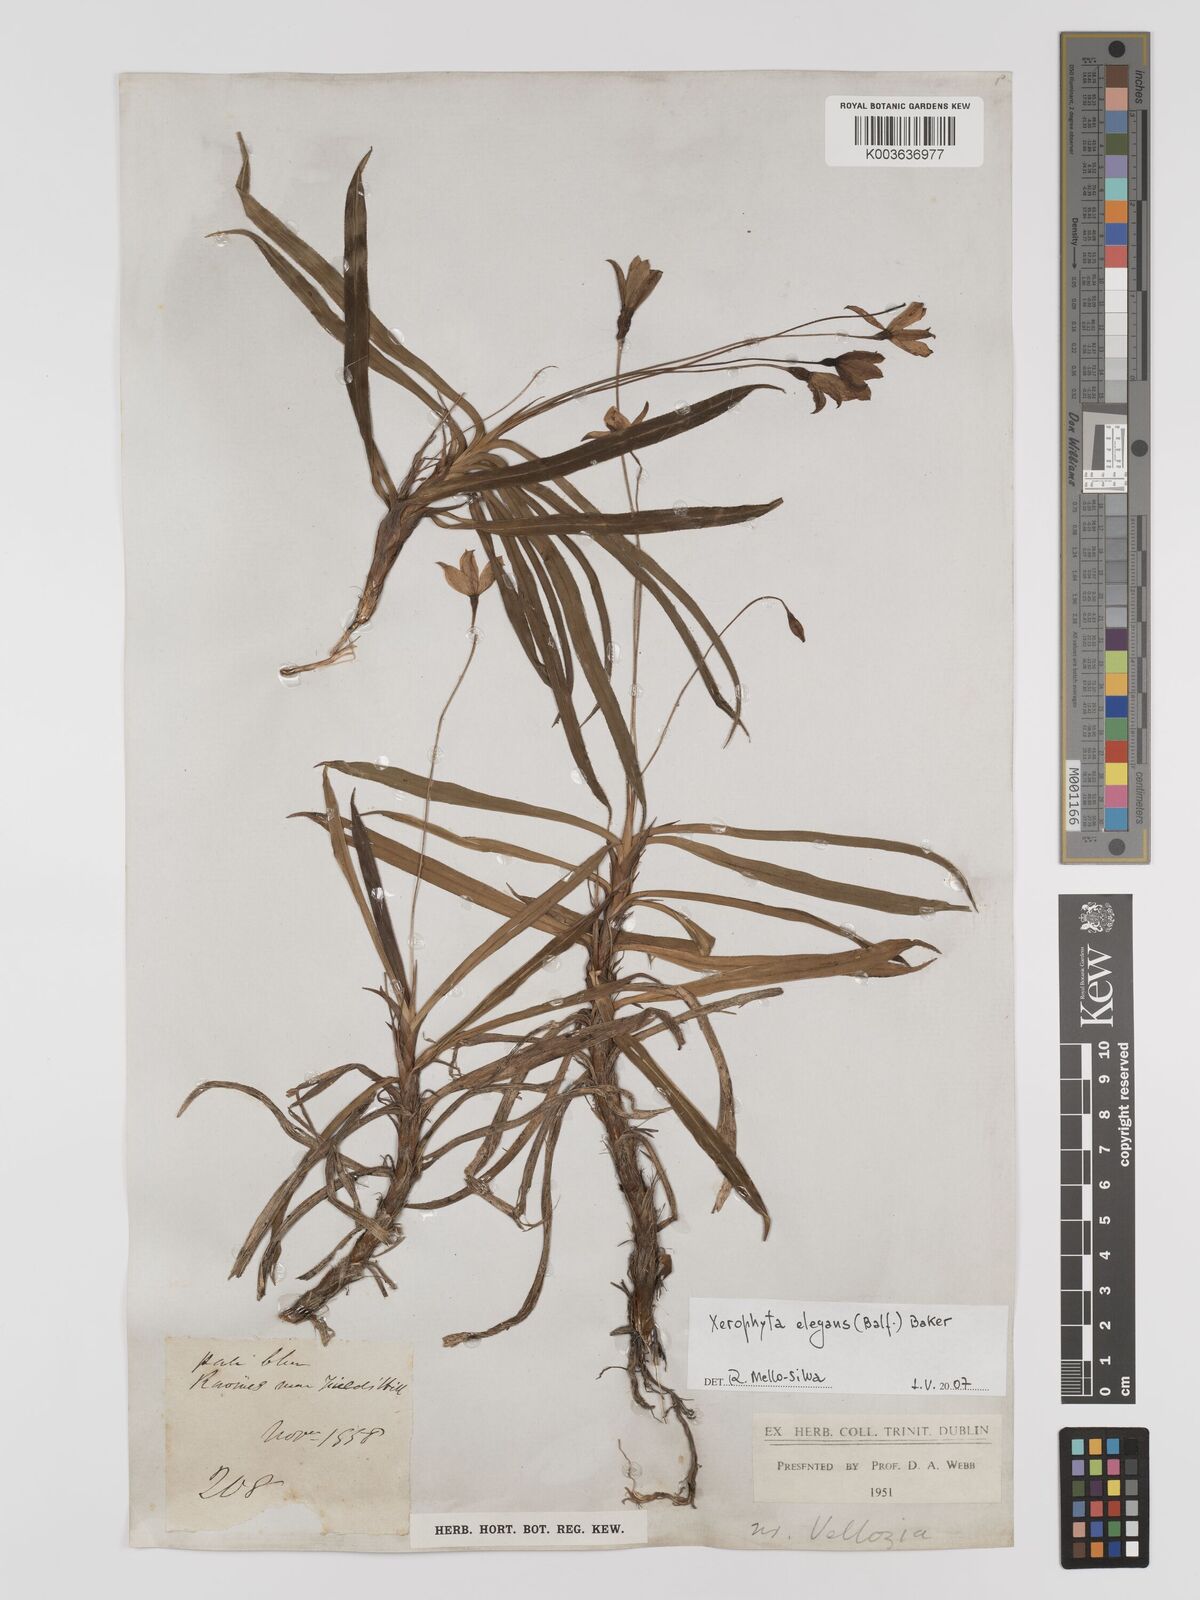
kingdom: Plantae
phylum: Tracheophyta
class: Liliopsida
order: Pandanales
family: Velloziaceae
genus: Xerophyta
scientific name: Xerophyta elegans
